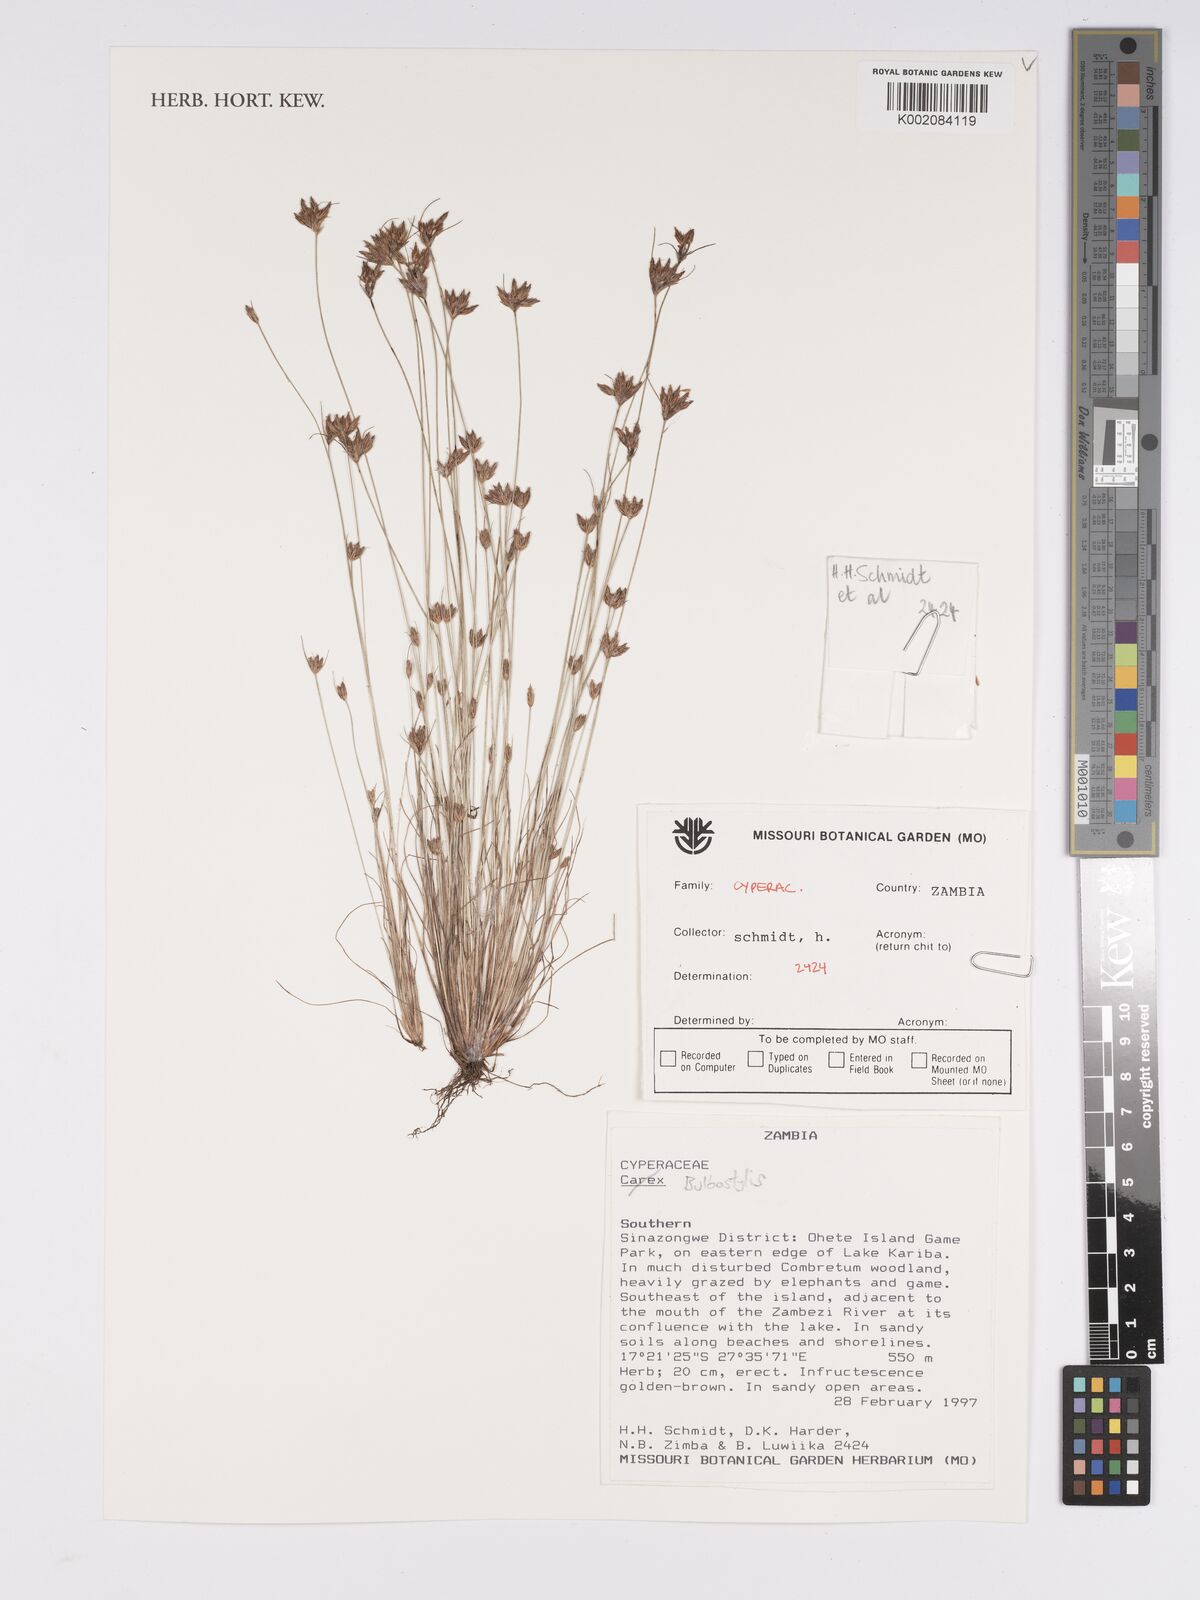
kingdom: Plantae
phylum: Tracheophyta
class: Liliopsida
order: Poales
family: Cyperaceae
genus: Bulbostylis
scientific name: Bulbostylis
